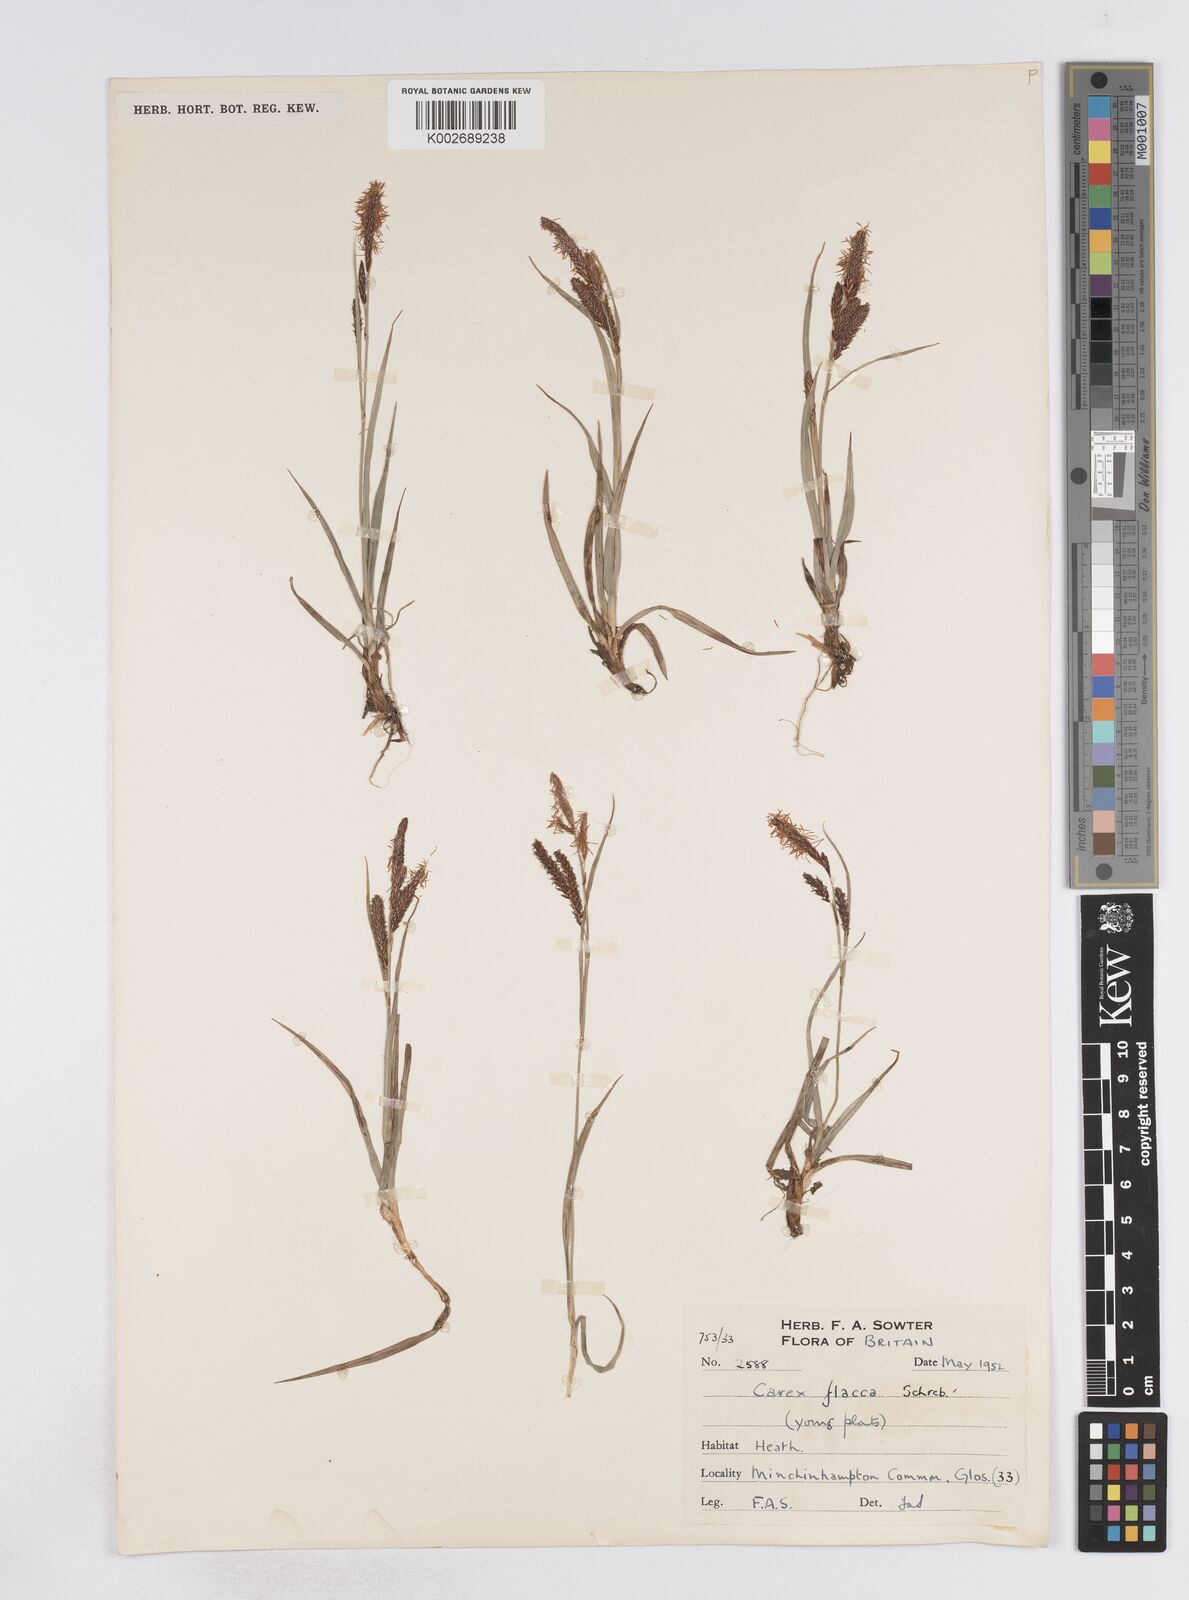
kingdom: Plantae
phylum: Tracheophyta
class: Liliopsida
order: Poales
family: Cyperaceae
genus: Carex
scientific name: Carex flacca
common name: Glaucous sedge
